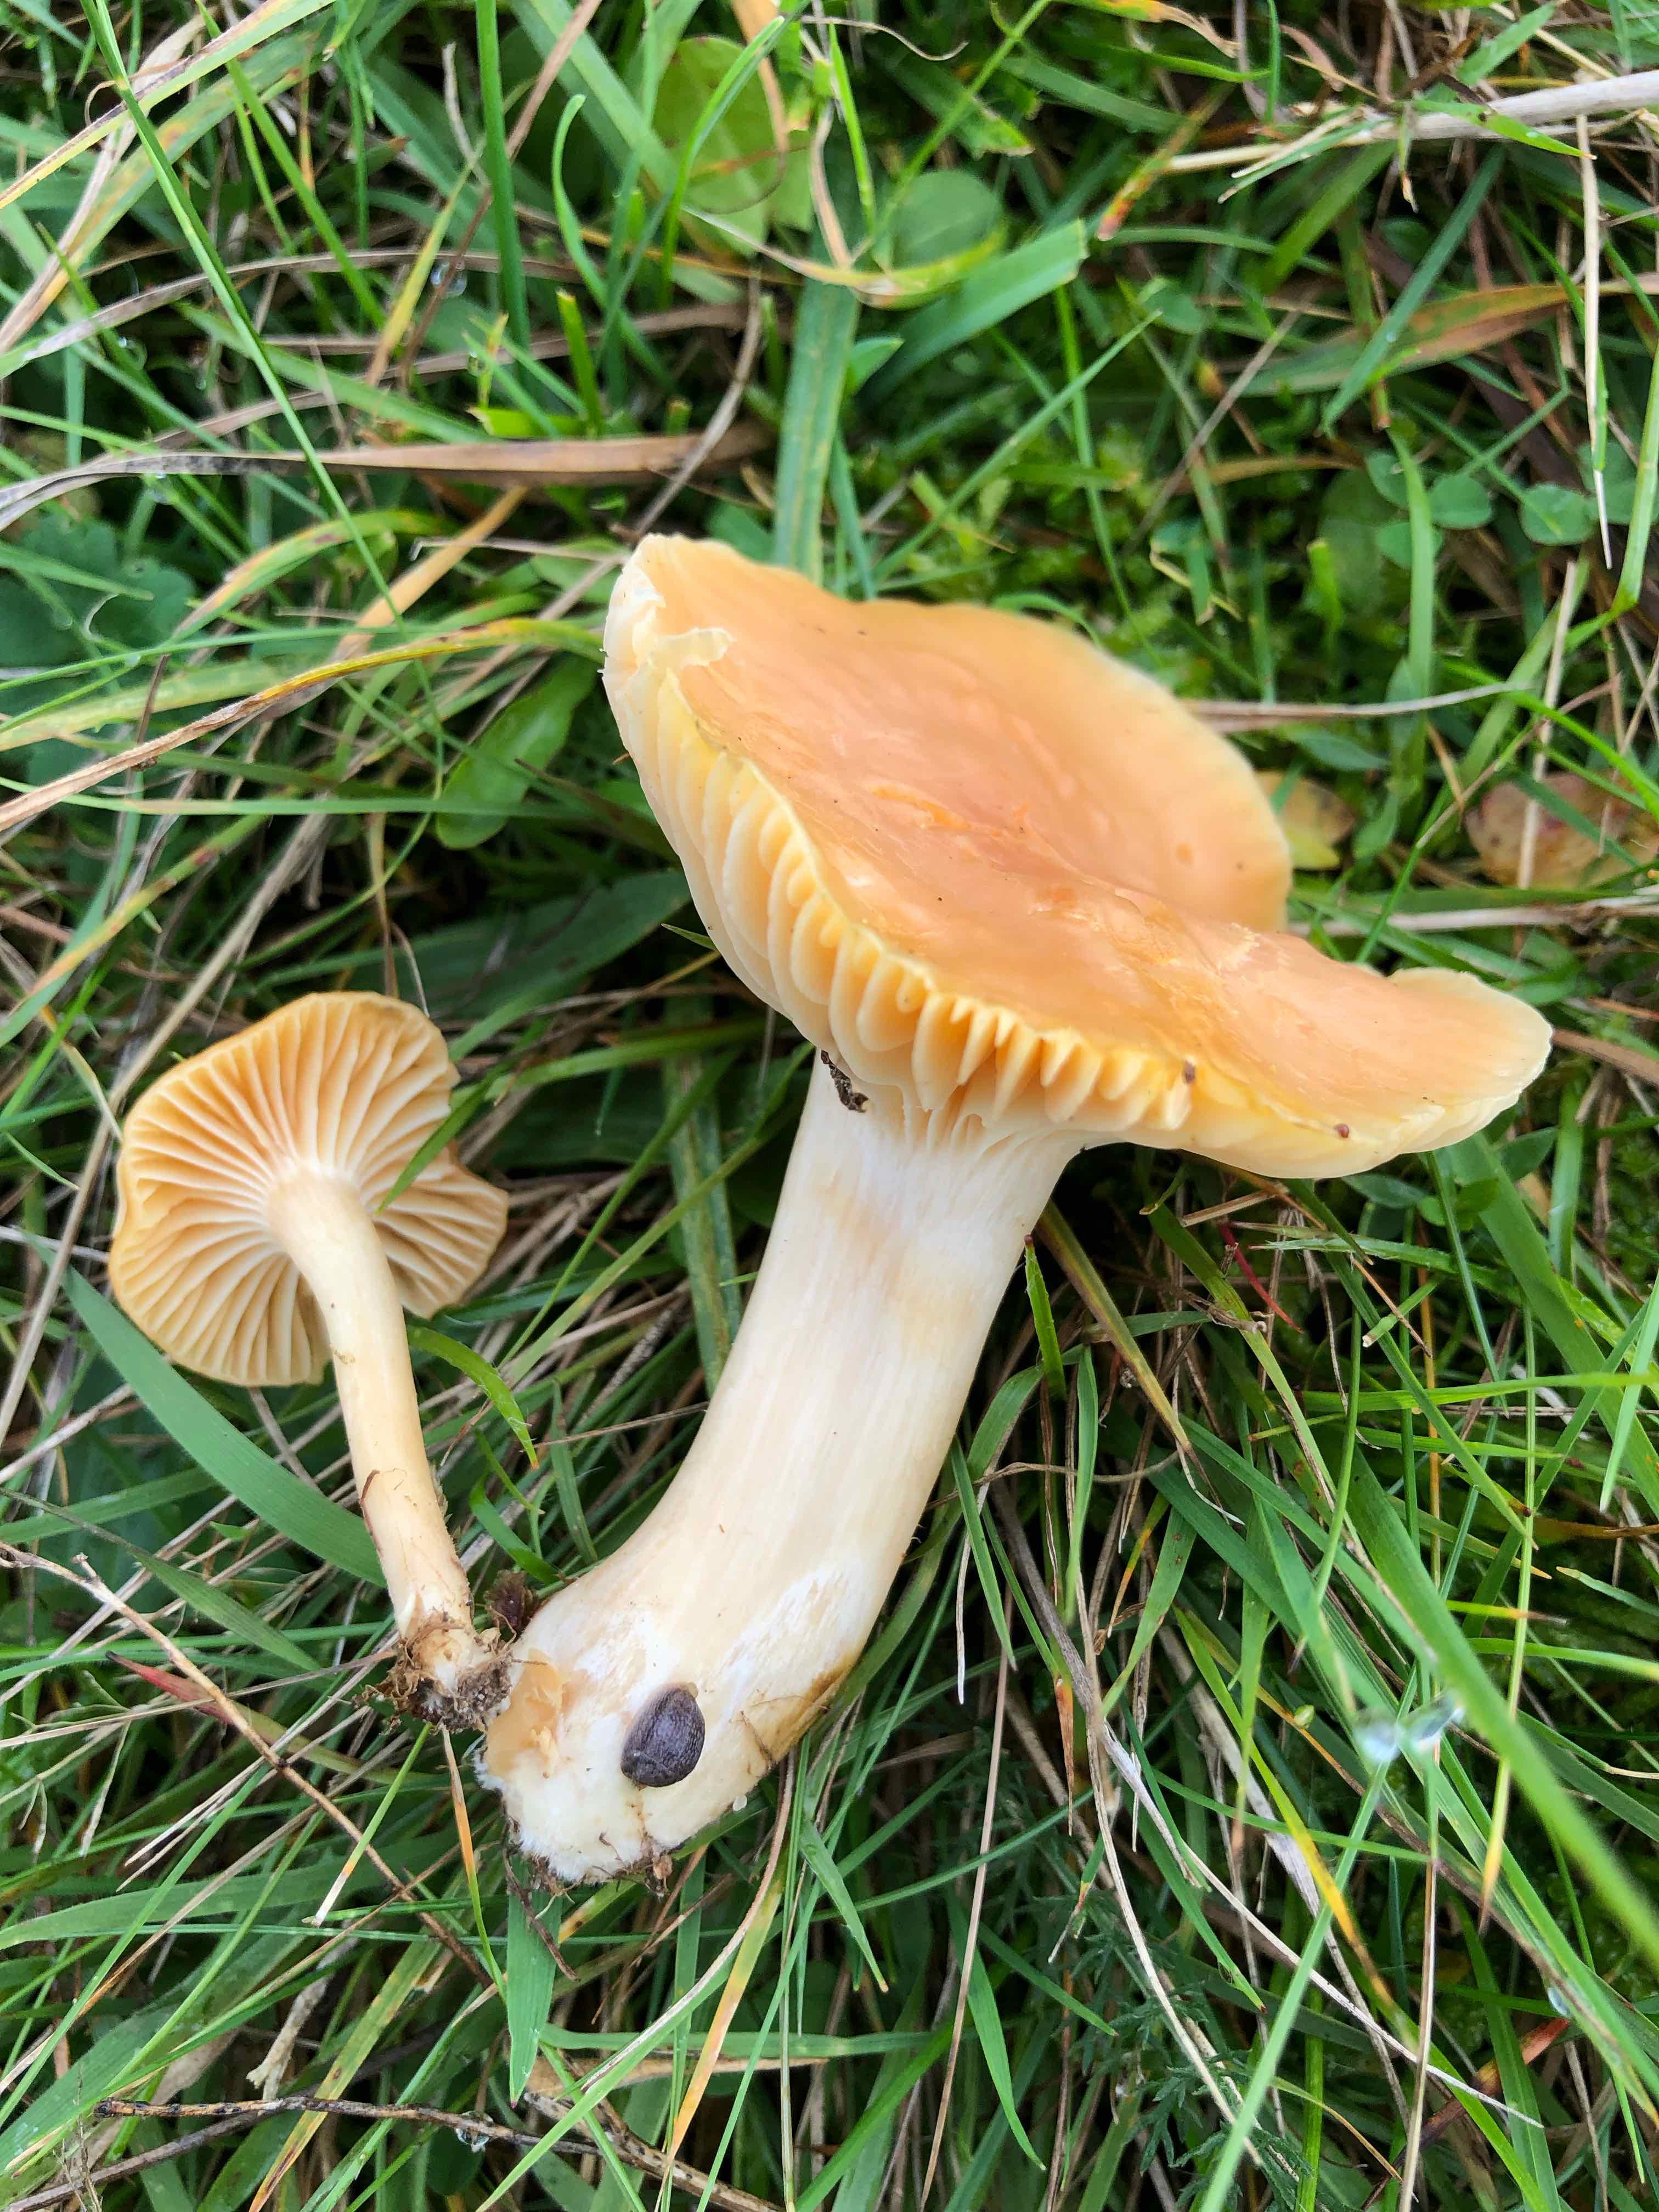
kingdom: Fungi
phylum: Basidiomycota
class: Agaricomycetes
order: Agaricales
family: Hygrophoraceae
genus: Cuphophyllus
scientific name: Cuphophyllus pratensis
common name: eng-vokshat
